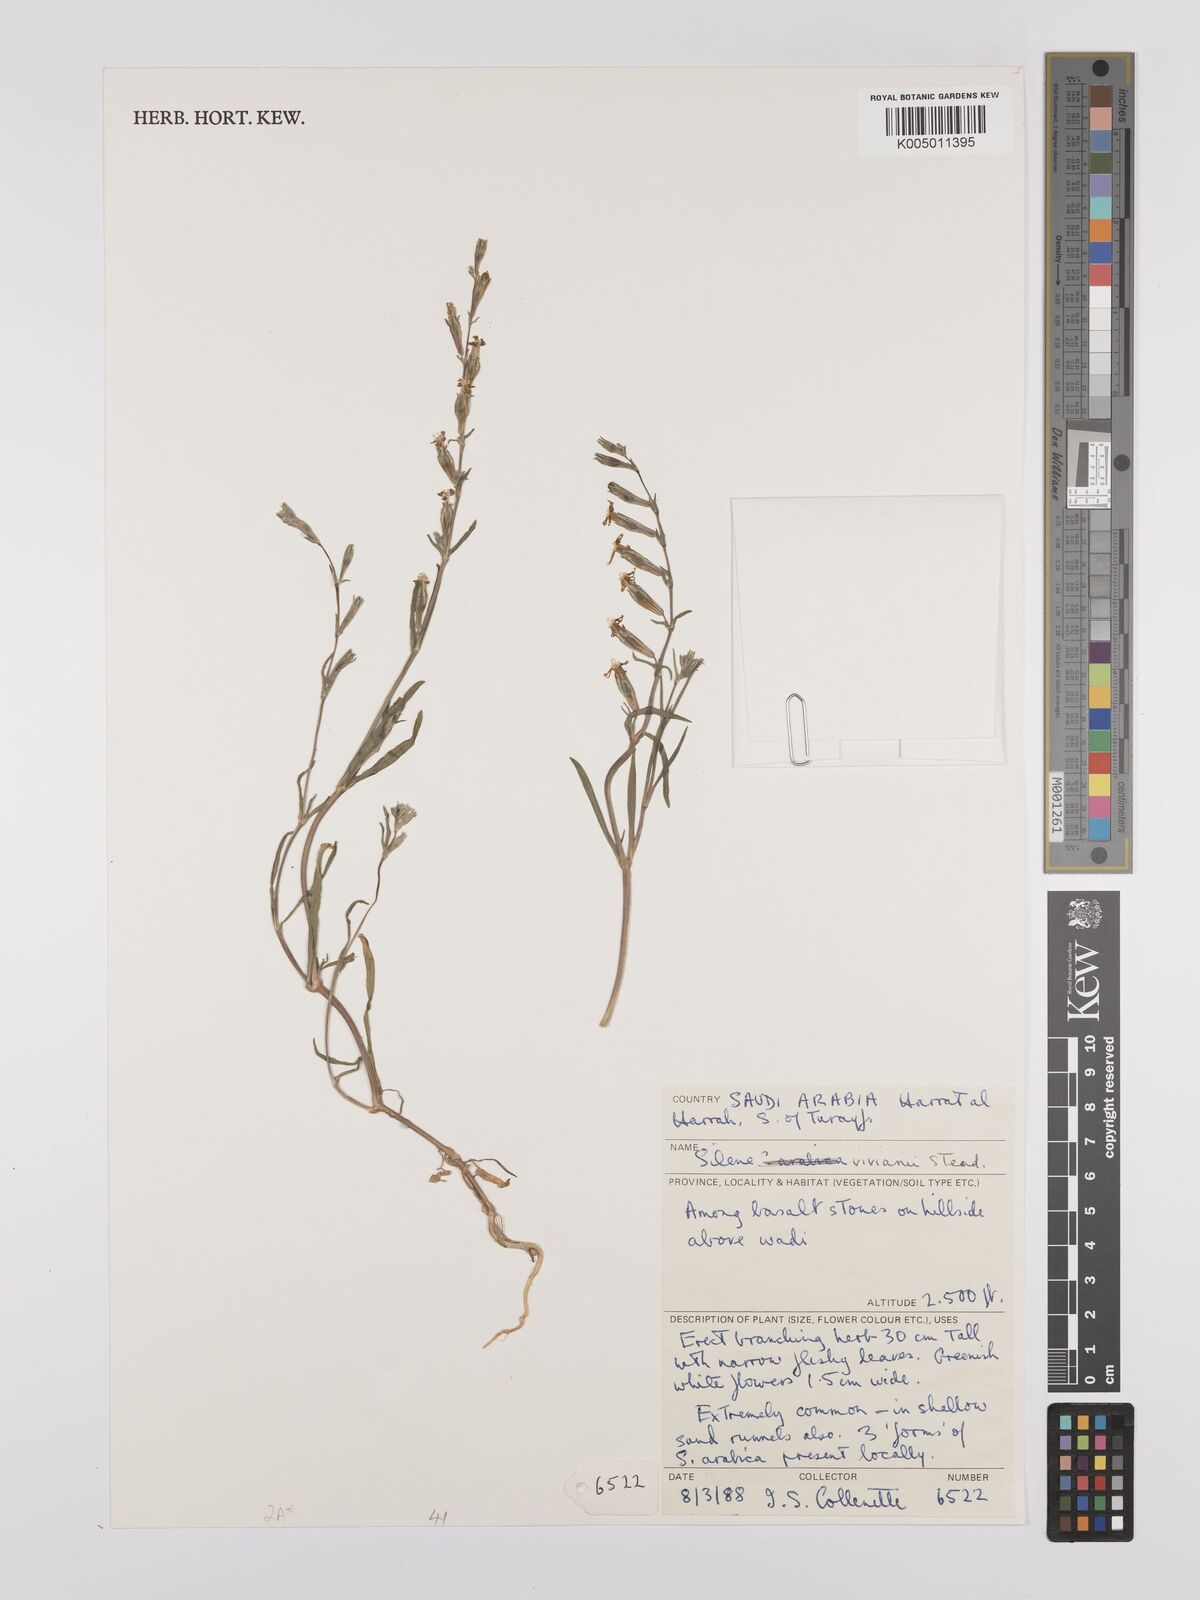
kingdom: Plantae
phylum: Tracheophyta
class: Magnoliopsida
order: Caryophyllales
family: Caryophyllaceae
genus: Silene
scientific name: Silene vivianii
